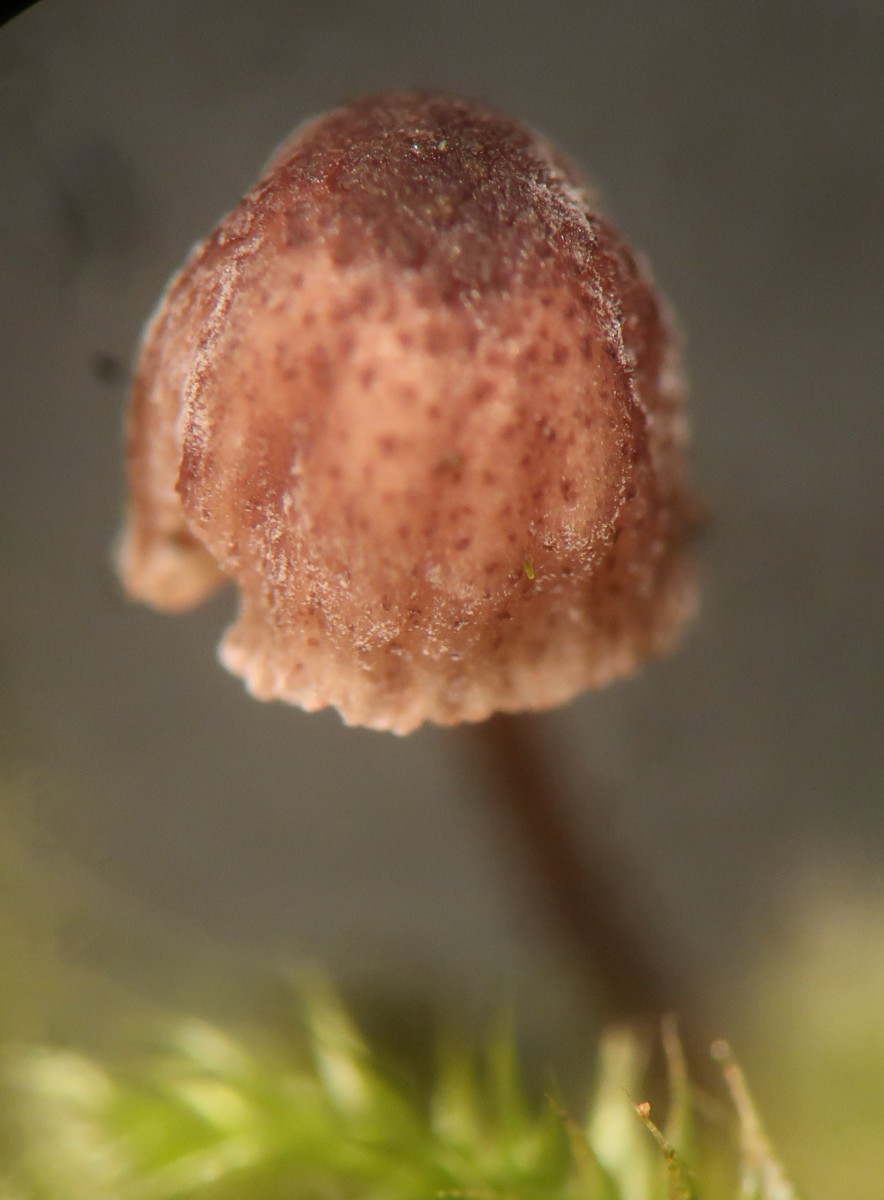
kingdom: Fungi
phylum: Basidiomycota
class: Agaricomycetes
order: Agaricales
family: Mycenaceae
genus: Mycena
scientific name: Mycena meliigena
